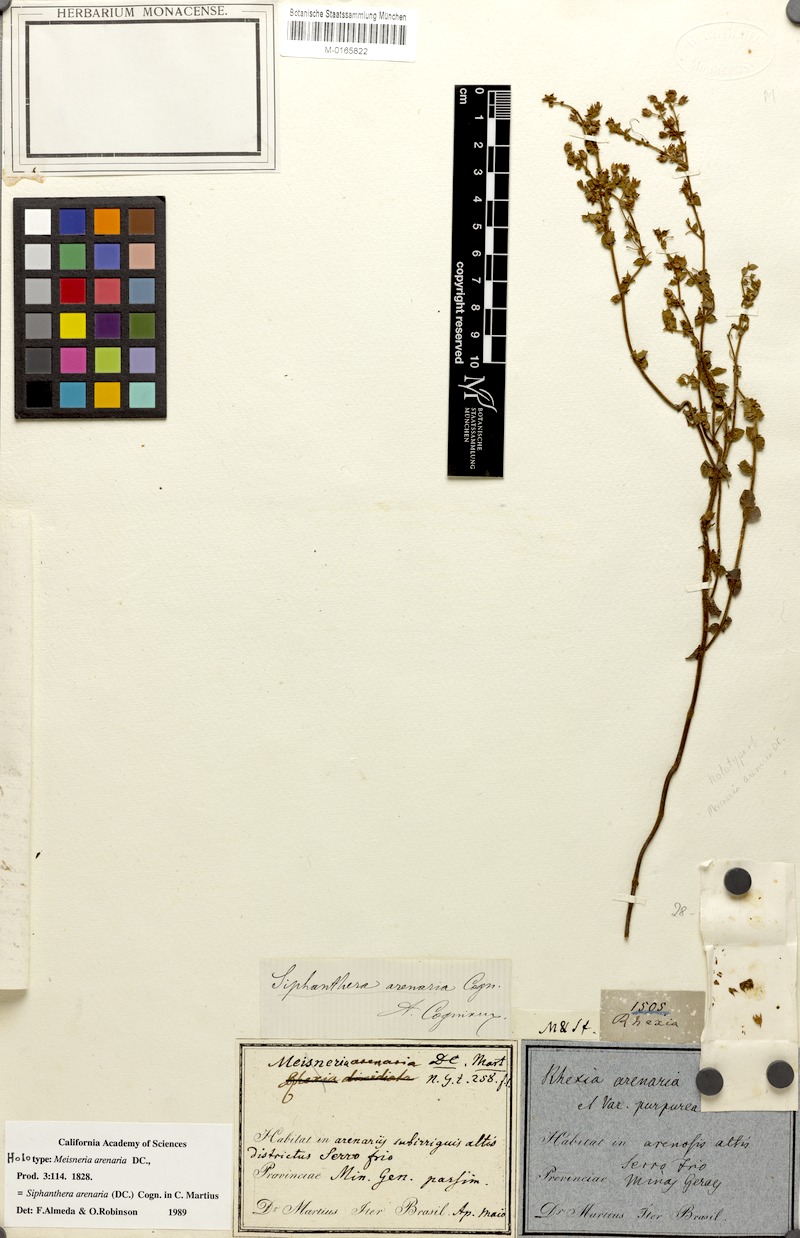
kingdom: Plantae
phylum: Tracheophyta
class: Magnoliopsida
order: Myrtales
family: Melastomataceae
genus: Siphanthera
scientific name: Siphanthera arenaria
